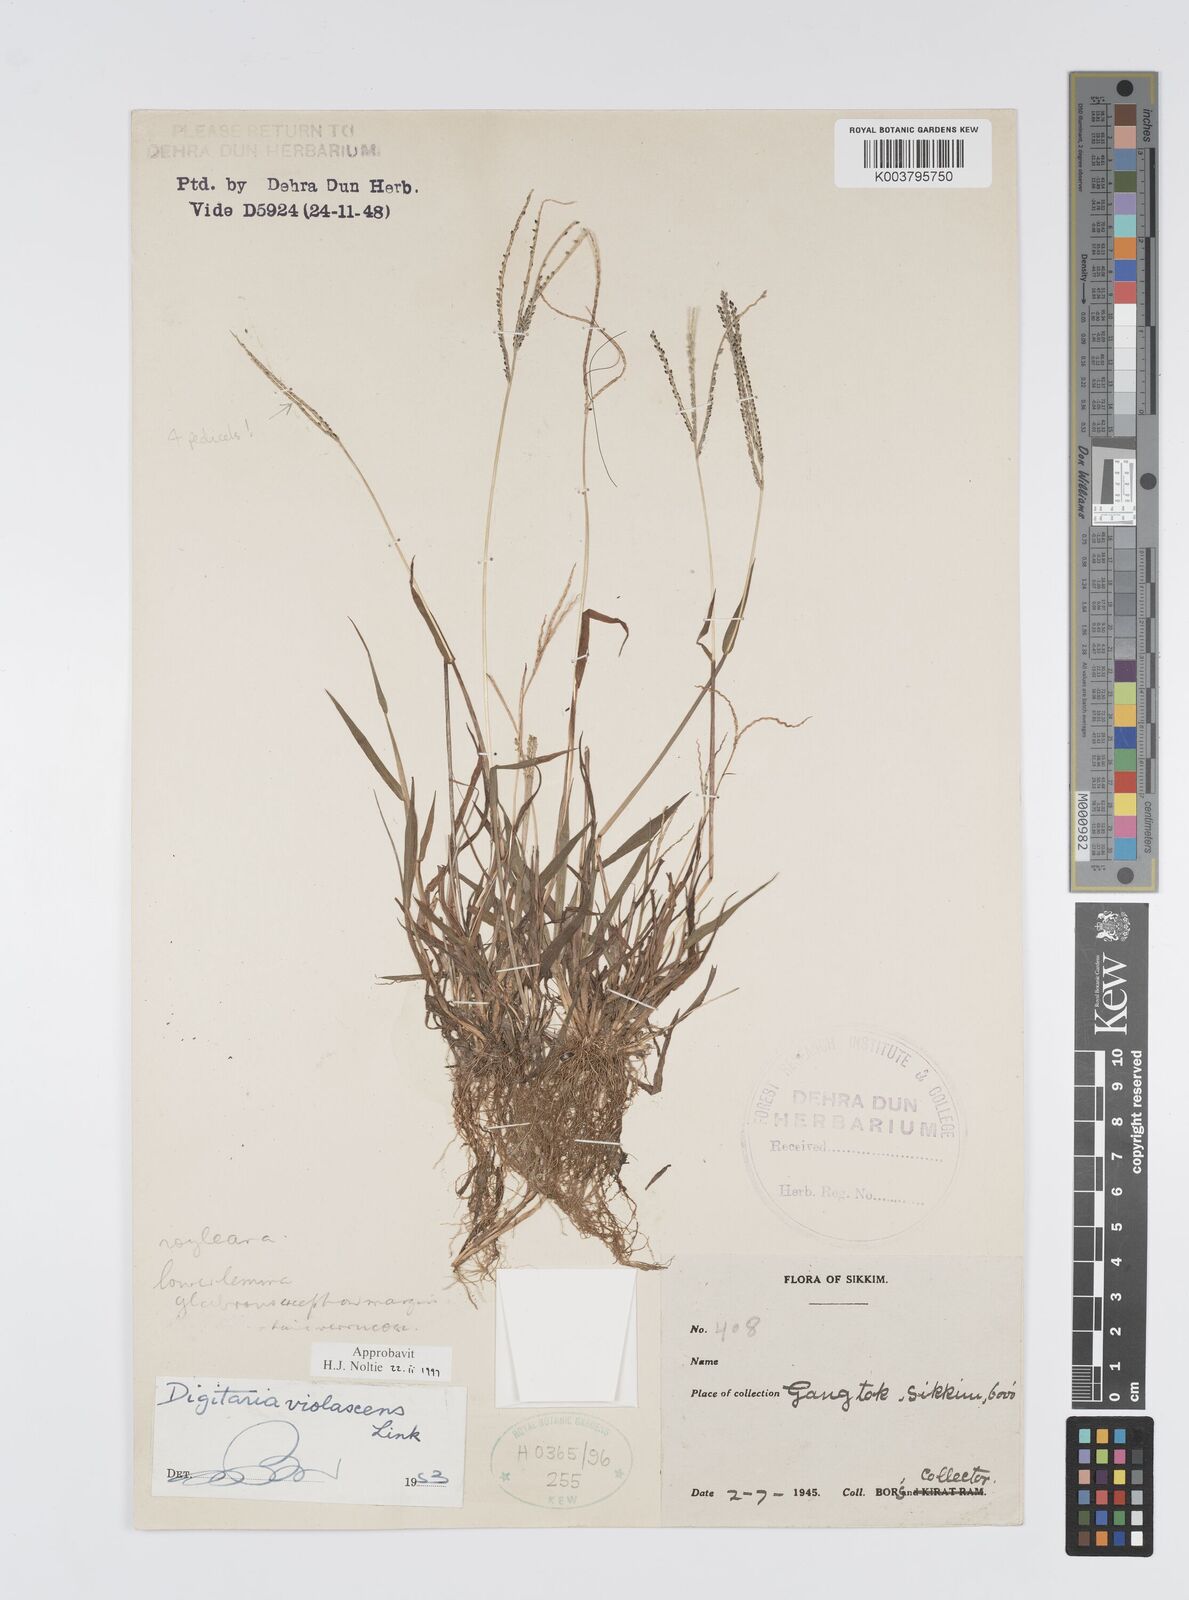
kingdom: Plantae
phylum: Tracheophyta
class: Liliopsida
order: Poales
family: Poaceae
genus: Digitaria
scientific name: Digitaria violascens
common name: Violet crabgrass
